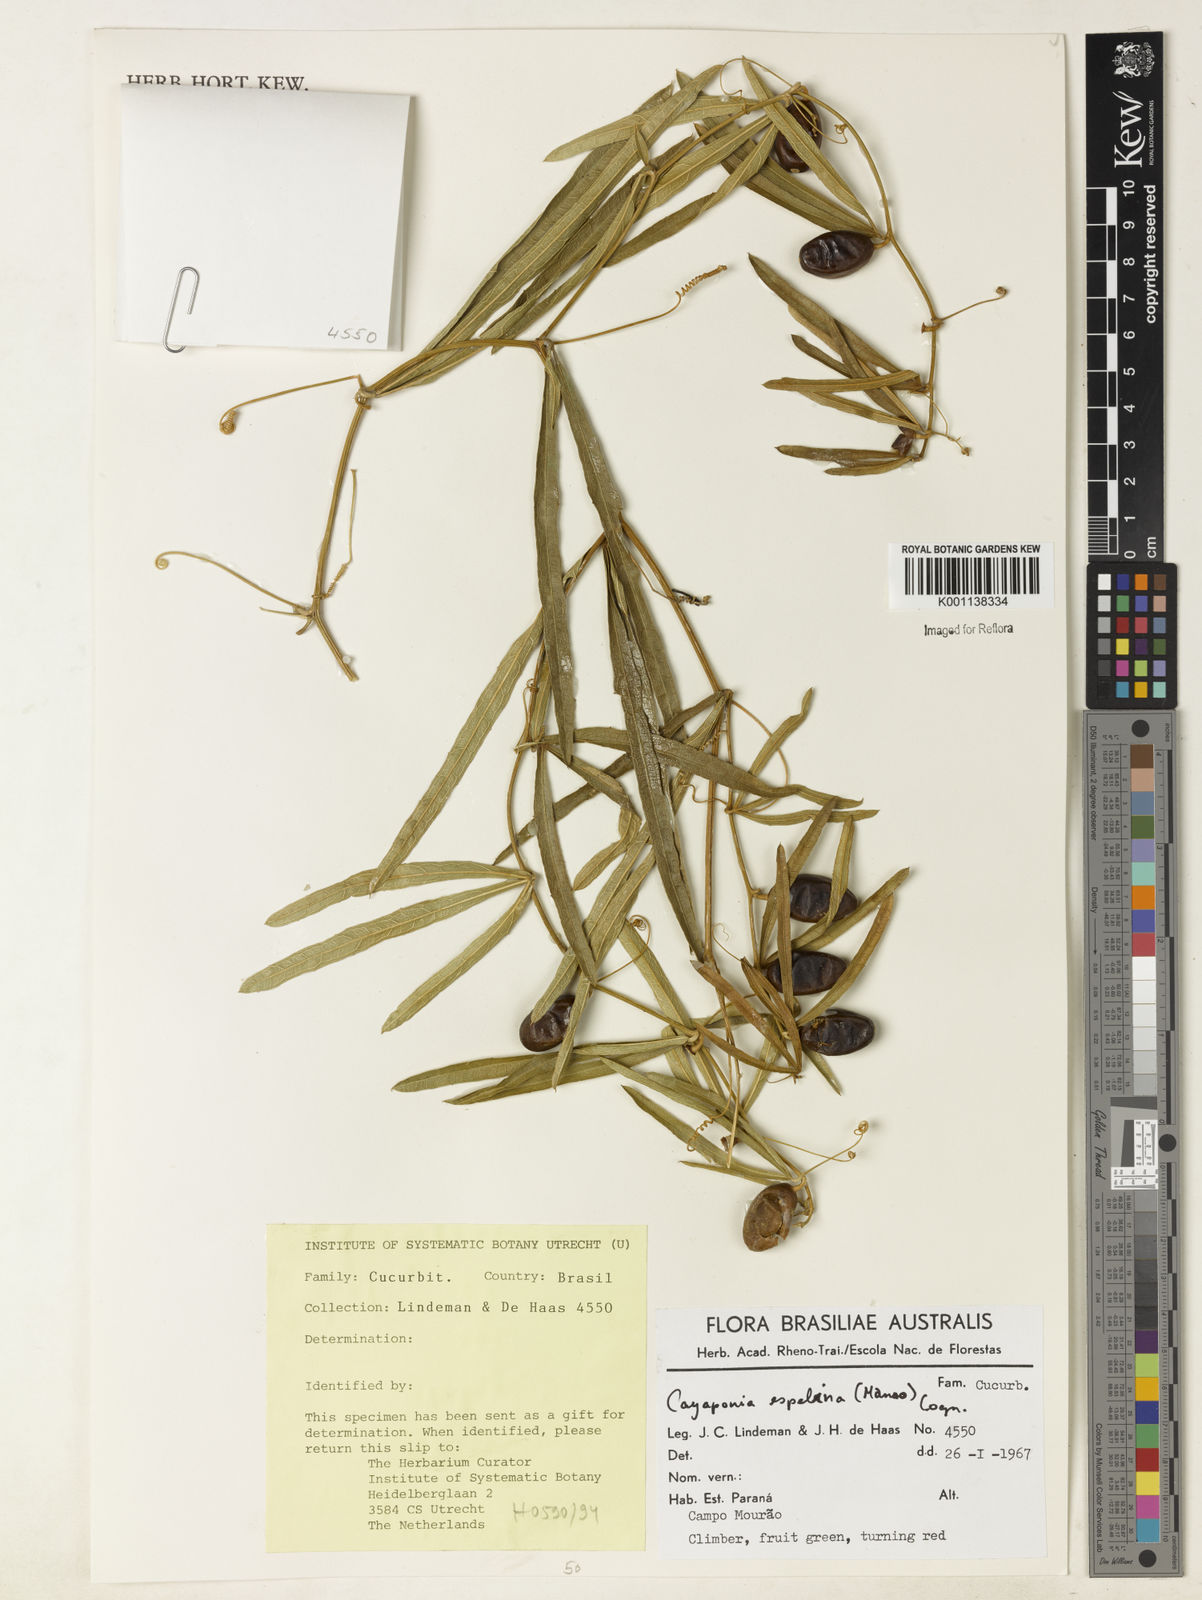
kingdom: Plantae
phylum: Tracheophyta
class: Magnoliopsida
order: Cucurbitales
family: Cucurbitaceae
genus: Cayaponia
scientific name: Cayaponia espelina
